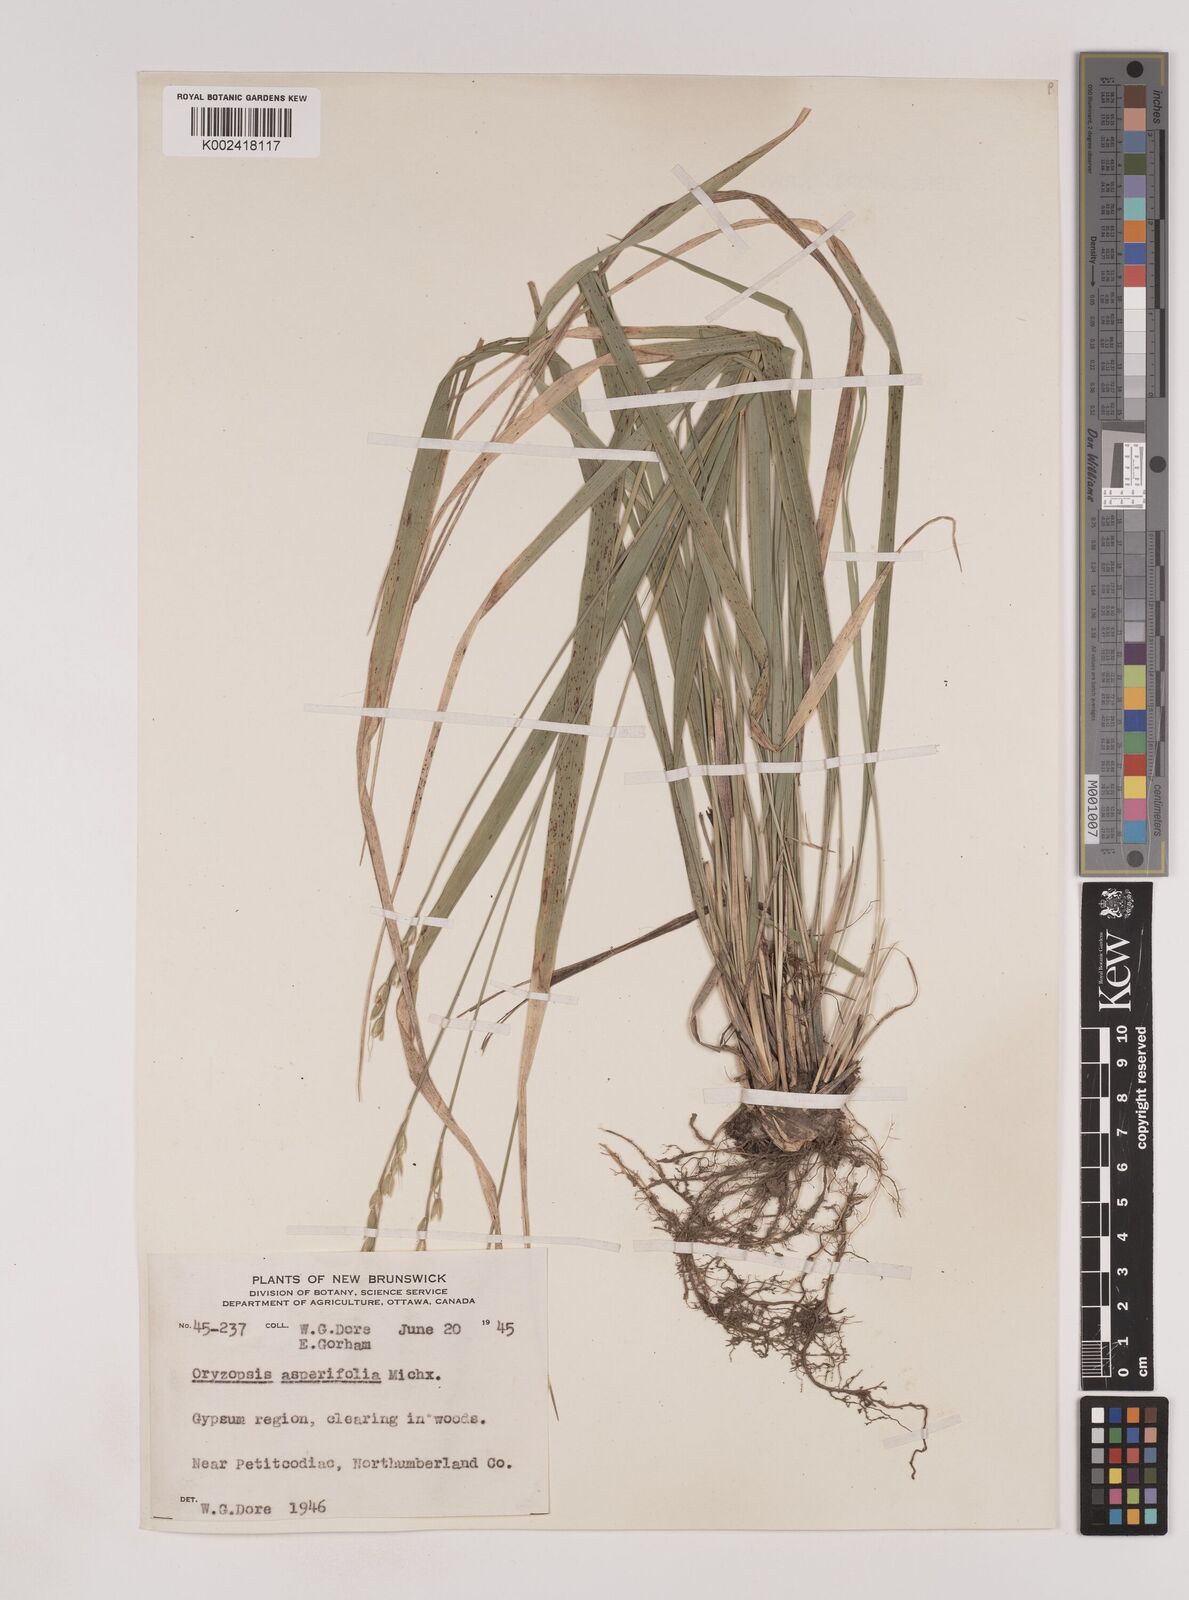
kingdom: Plantae
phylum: Tracheophyta
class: Liliopsida
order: Poales
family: Poaceae
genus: Oryzopsis
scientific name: Oryzopsis asperifolia
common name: Rough-leaved mountain rice
